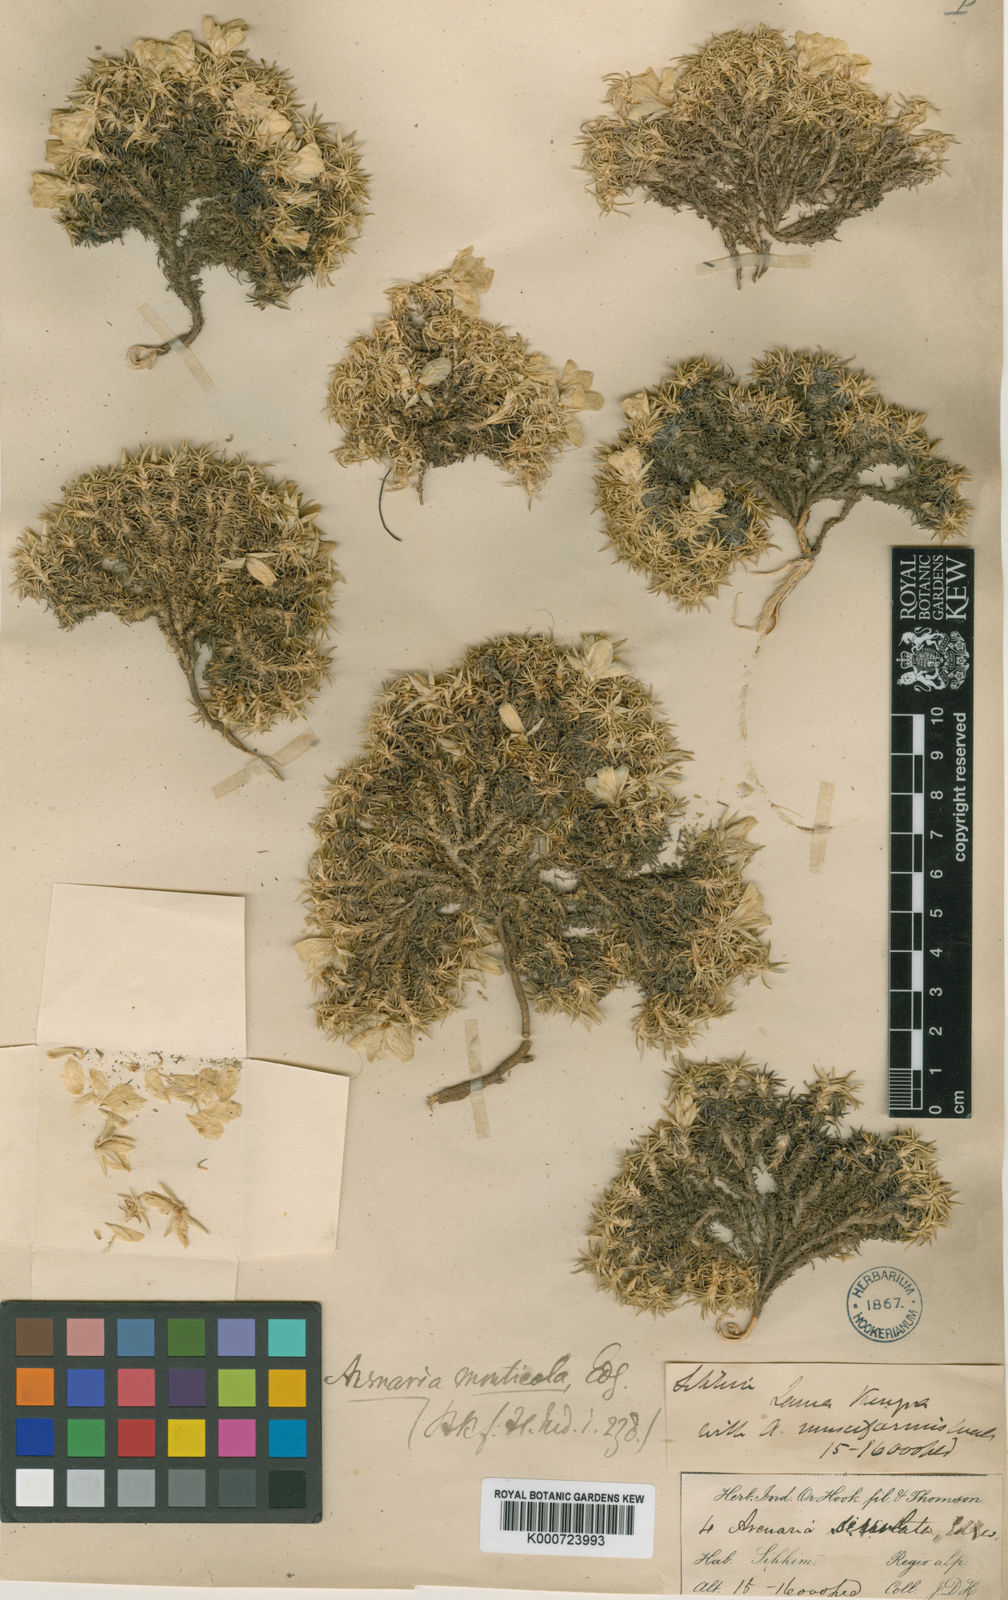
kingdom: Plantae
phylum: Tracheophyta
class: Magnoliopsida
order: Caryophyllales
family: Caryophyllaceae
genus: Eremogone
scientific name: Eremogone edgeworthiana
